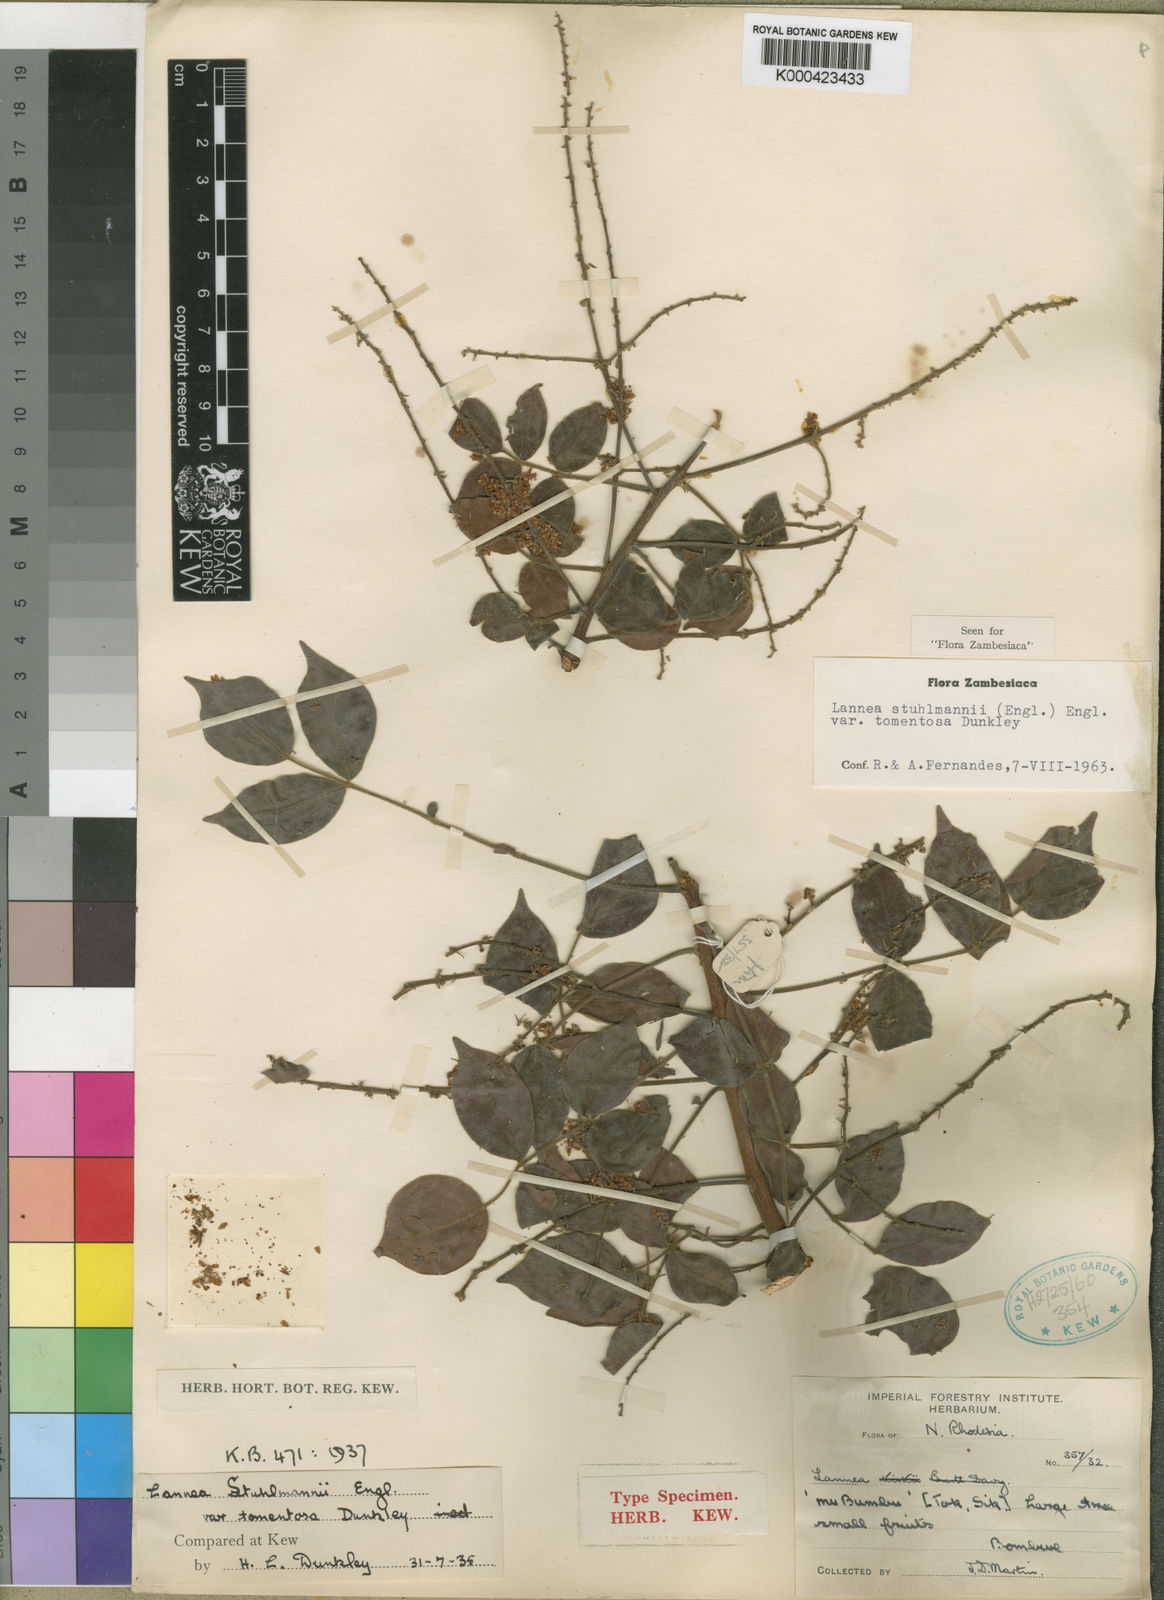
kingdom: Plantae
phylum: Tracheophyta
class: Magnoliopsida
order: Sapindales
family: Anacardiaceae
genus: Lannea
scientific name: Lannea schweinfurthii
